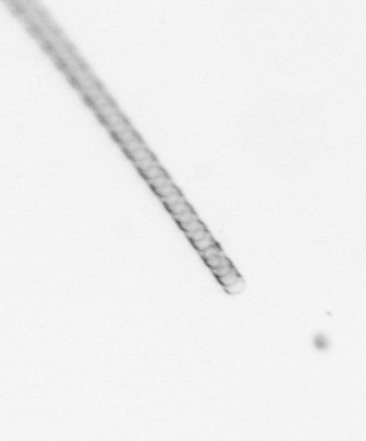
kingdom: Chromista
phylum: Ochrophyta
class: Bacillariophyceae
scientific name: Bacillariophyceae
